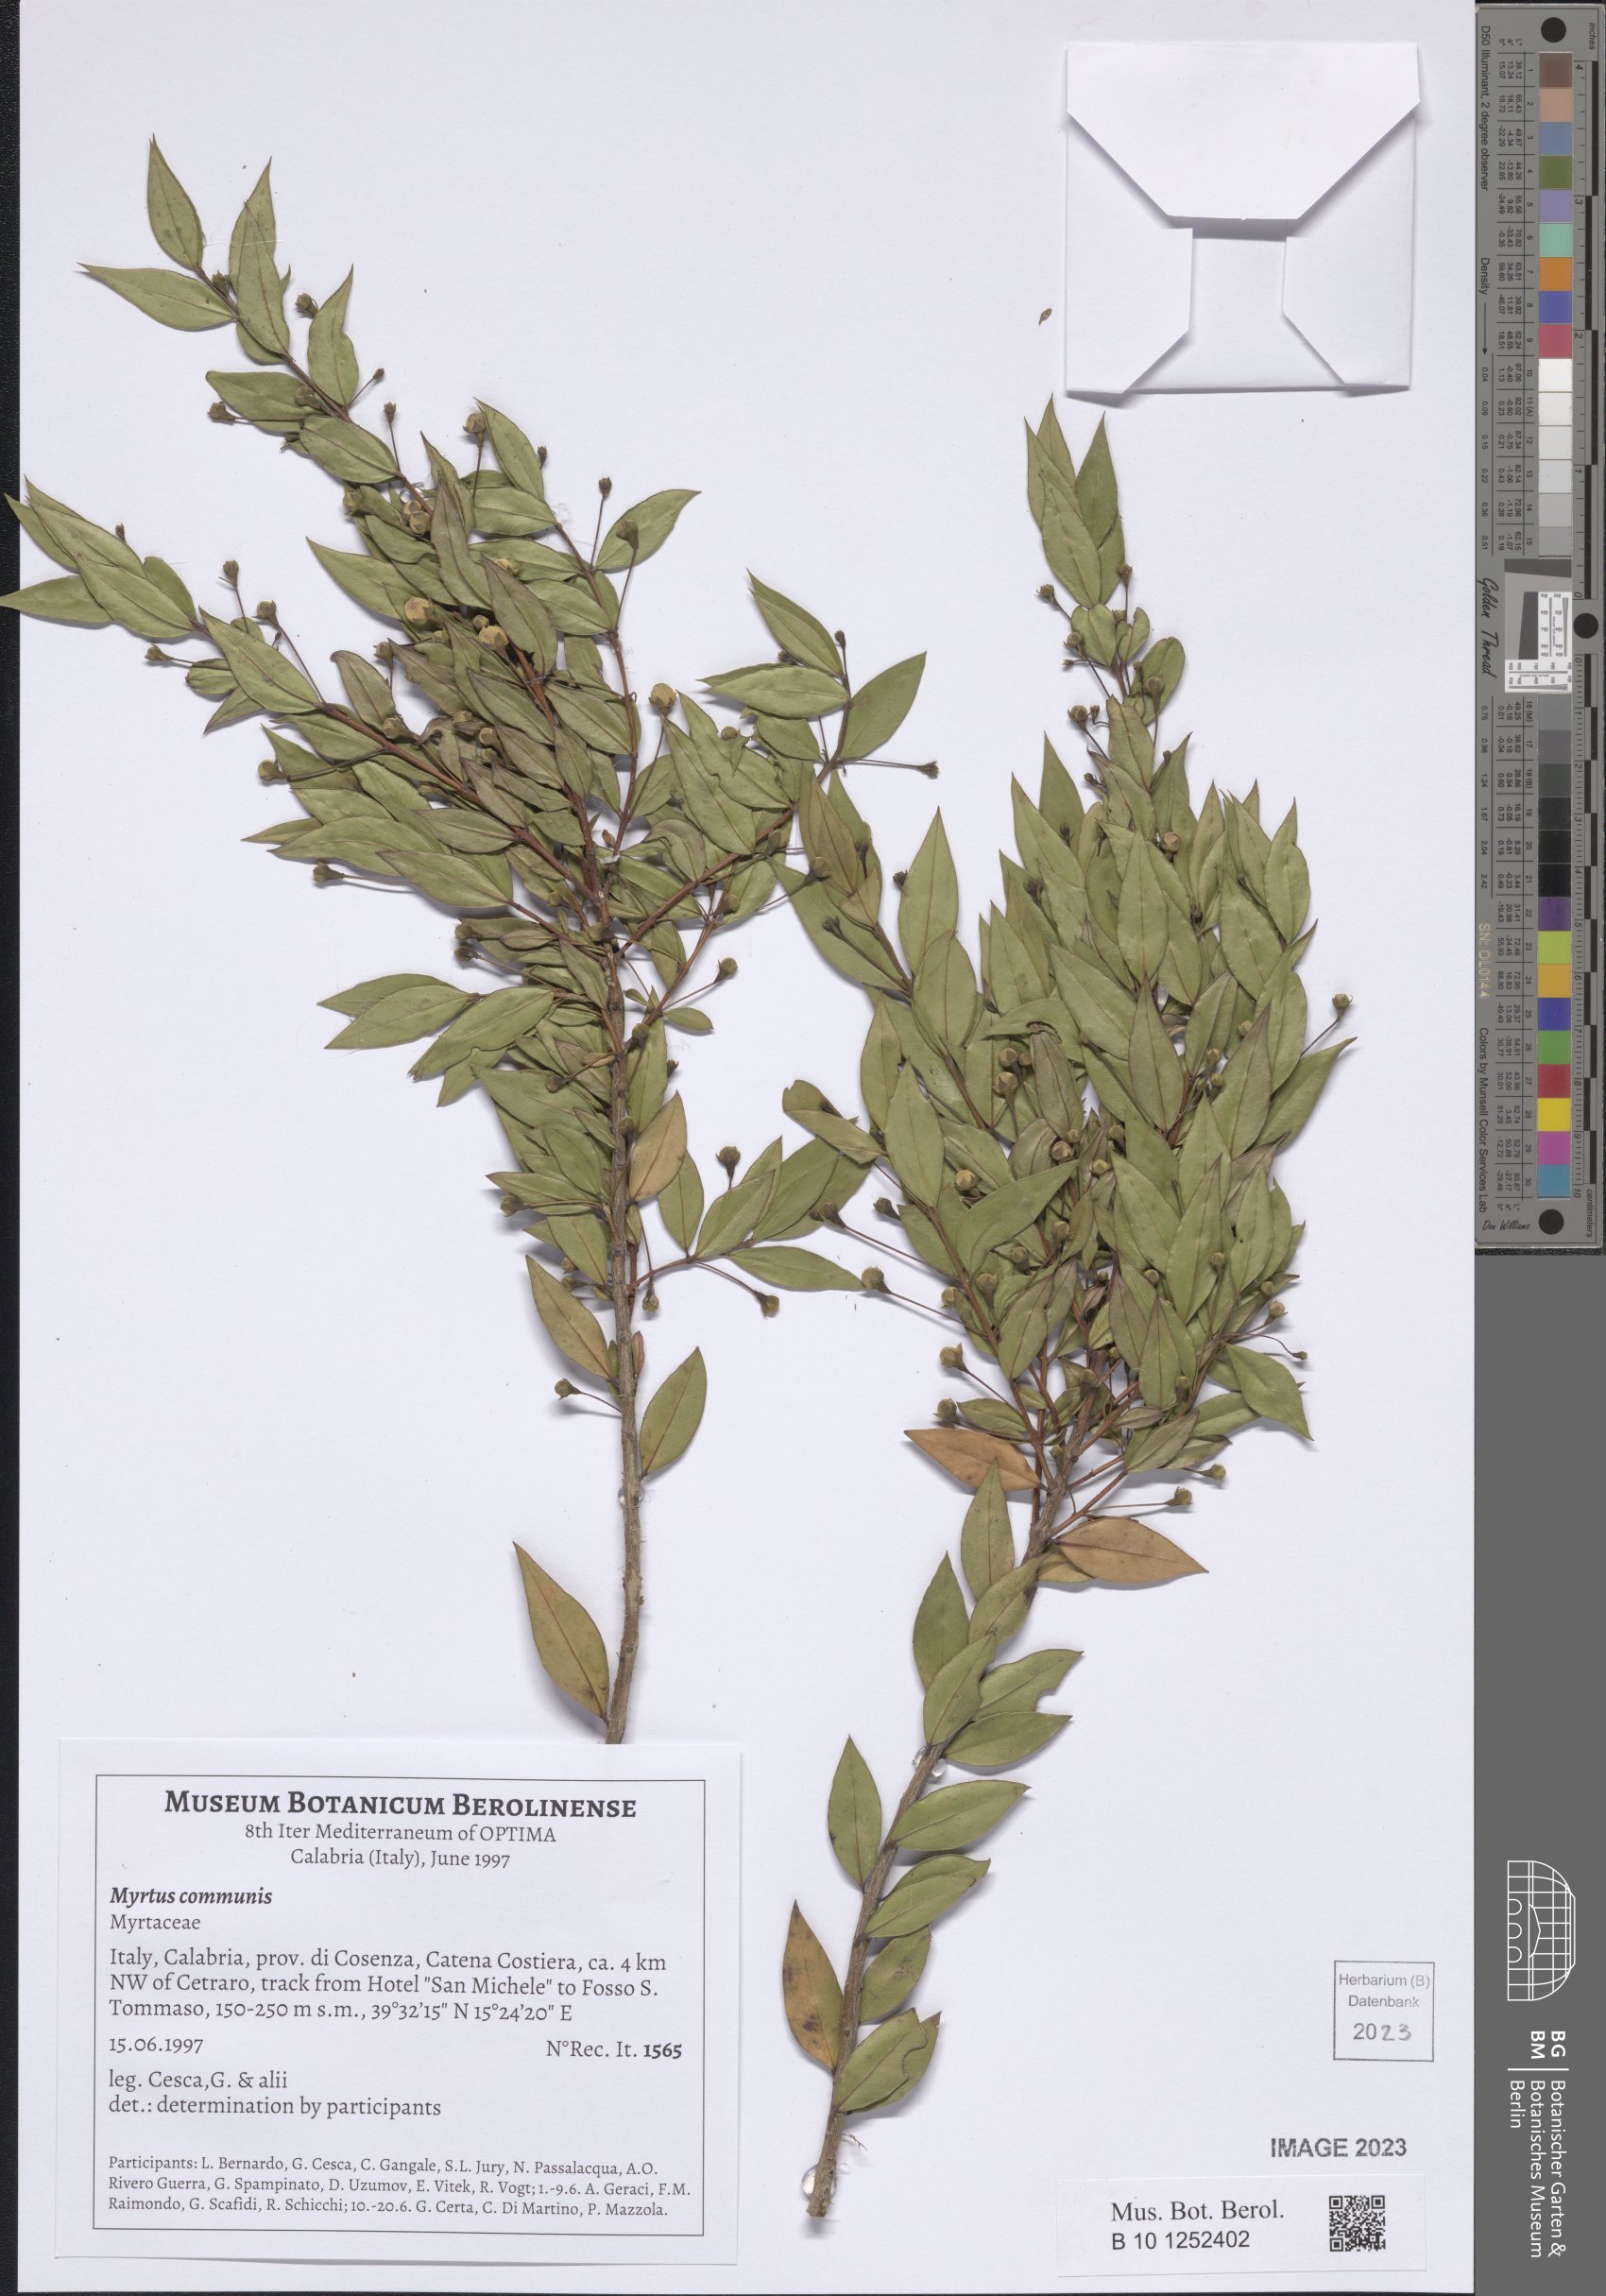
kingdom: Plantae
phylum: Tracheophyta
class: Magnoliopsida
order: Myrtales
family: Myrtaceae
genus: Myrtus
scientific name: Myrtus communis
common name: Myrtle
